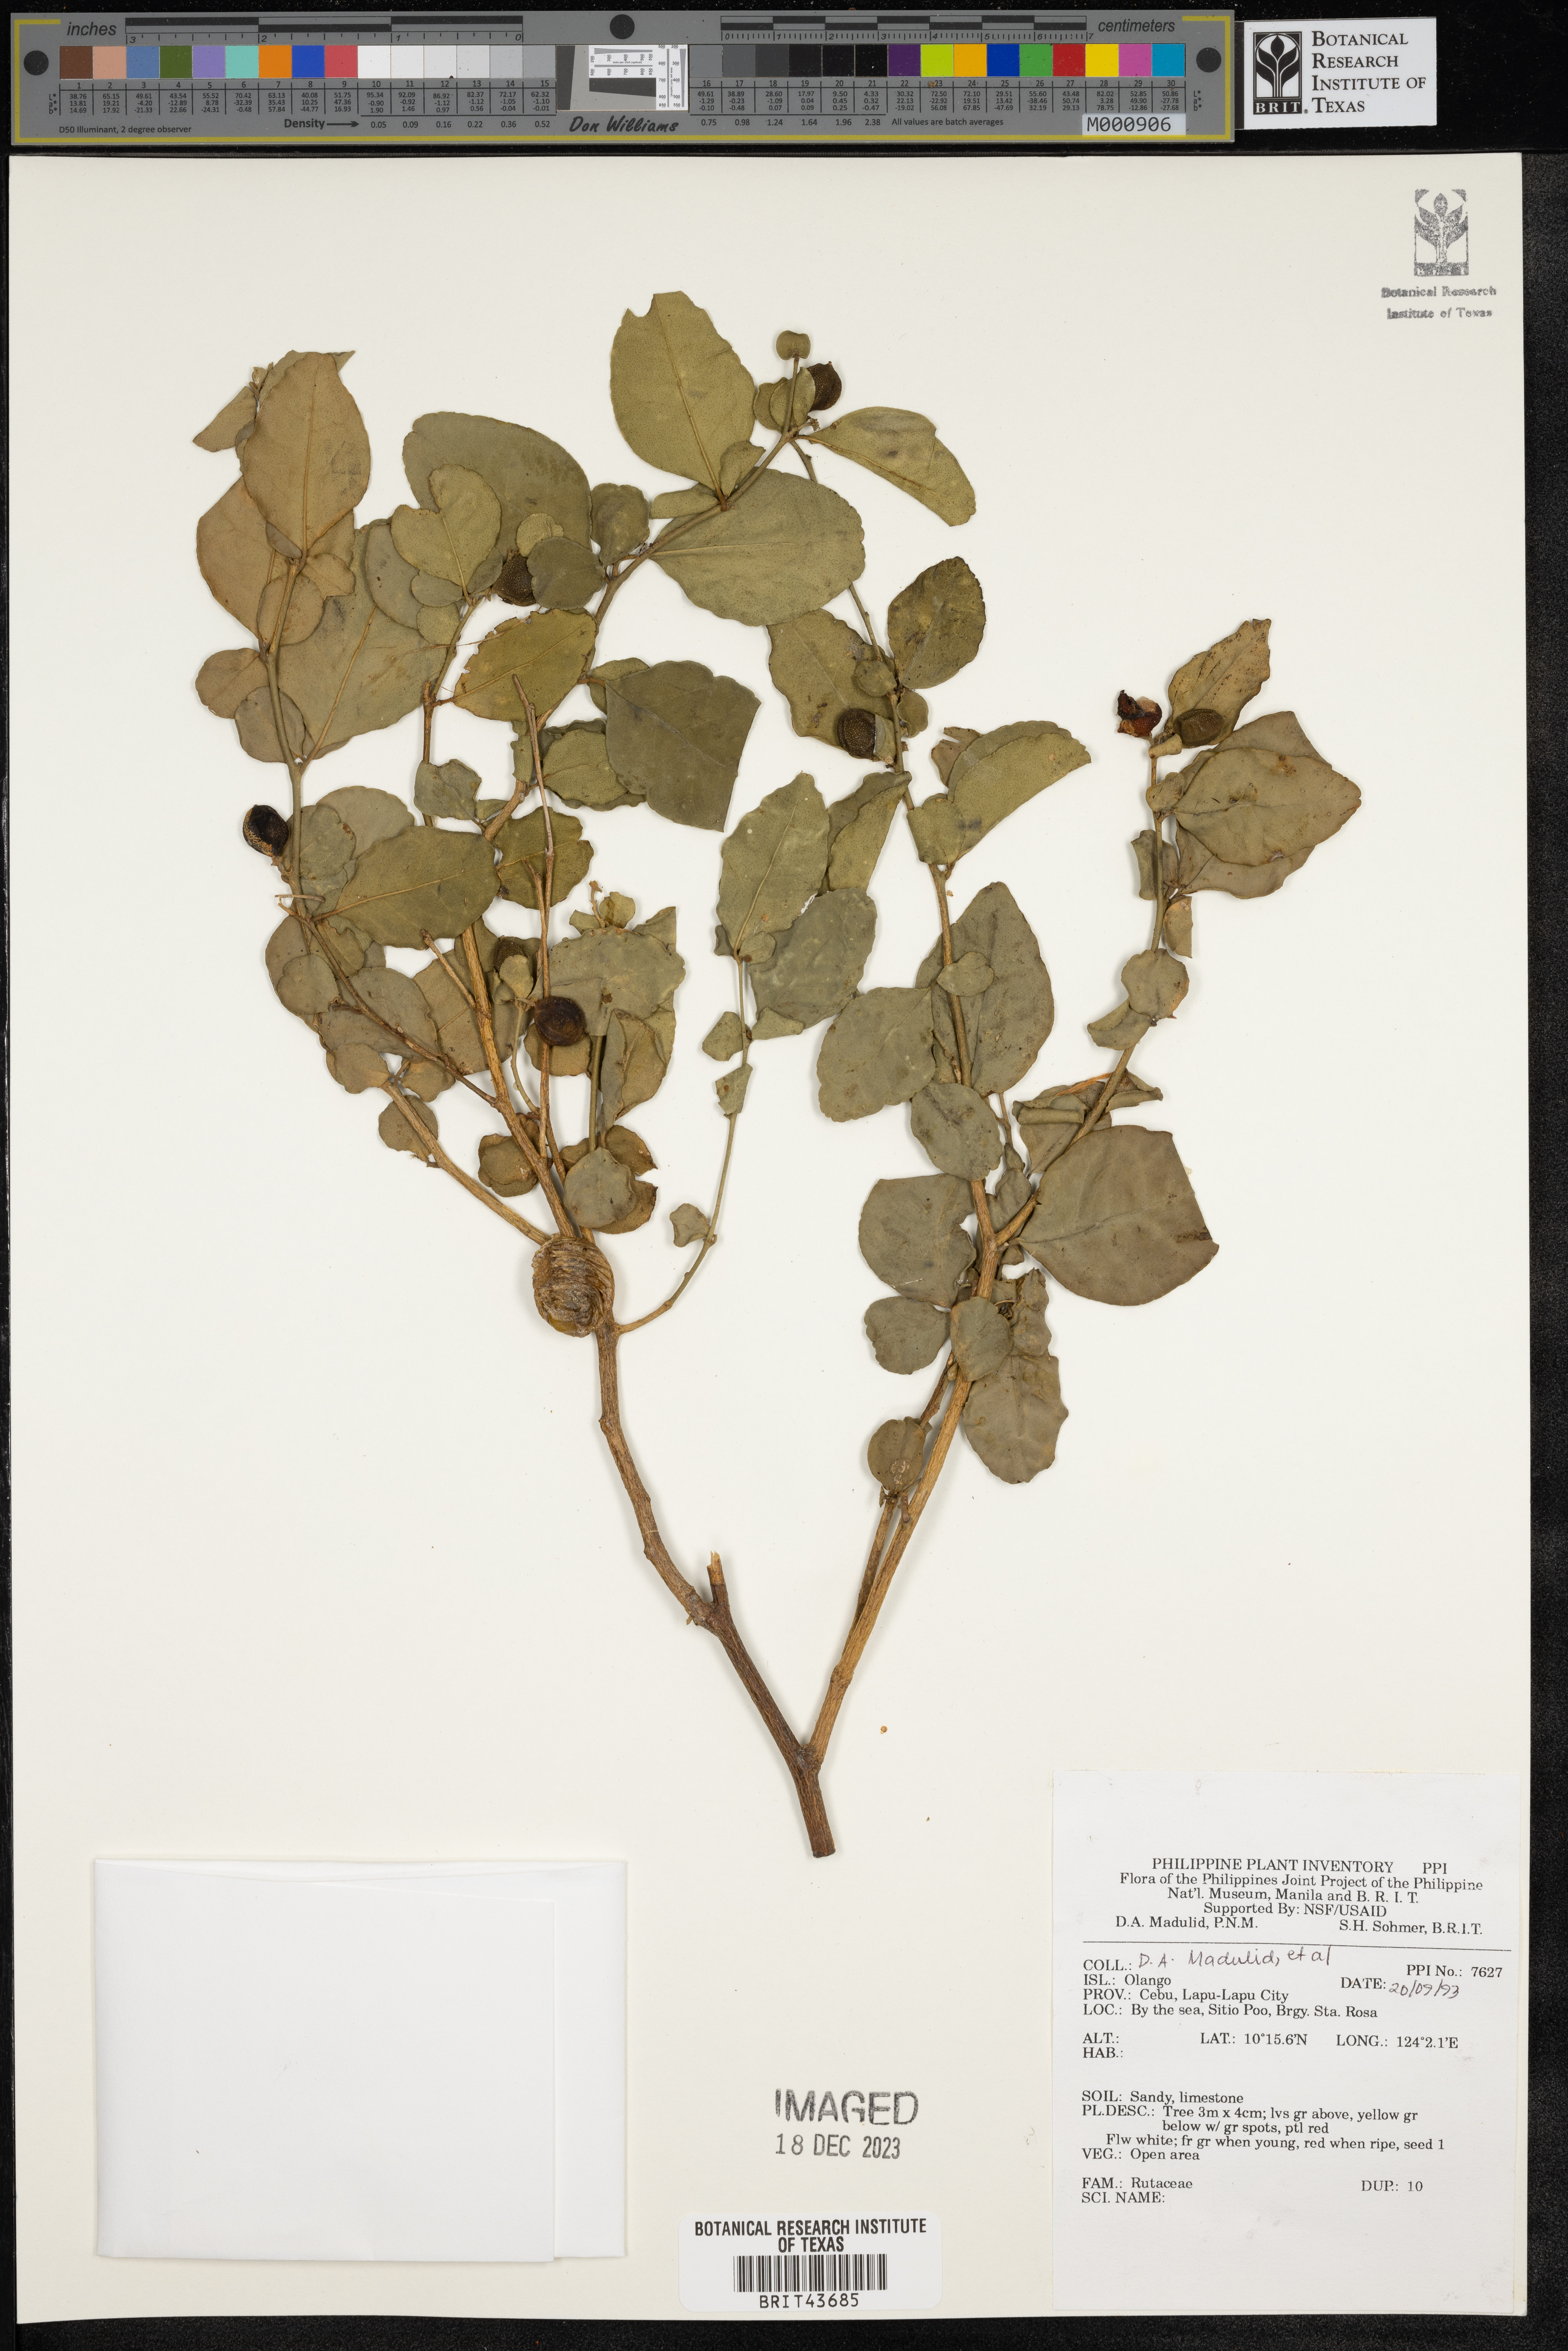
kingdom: Plantae
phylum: Tracheophyta
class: Magnoliopsida
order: Sapindales
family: Rutaceae
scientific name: Rutaceae
